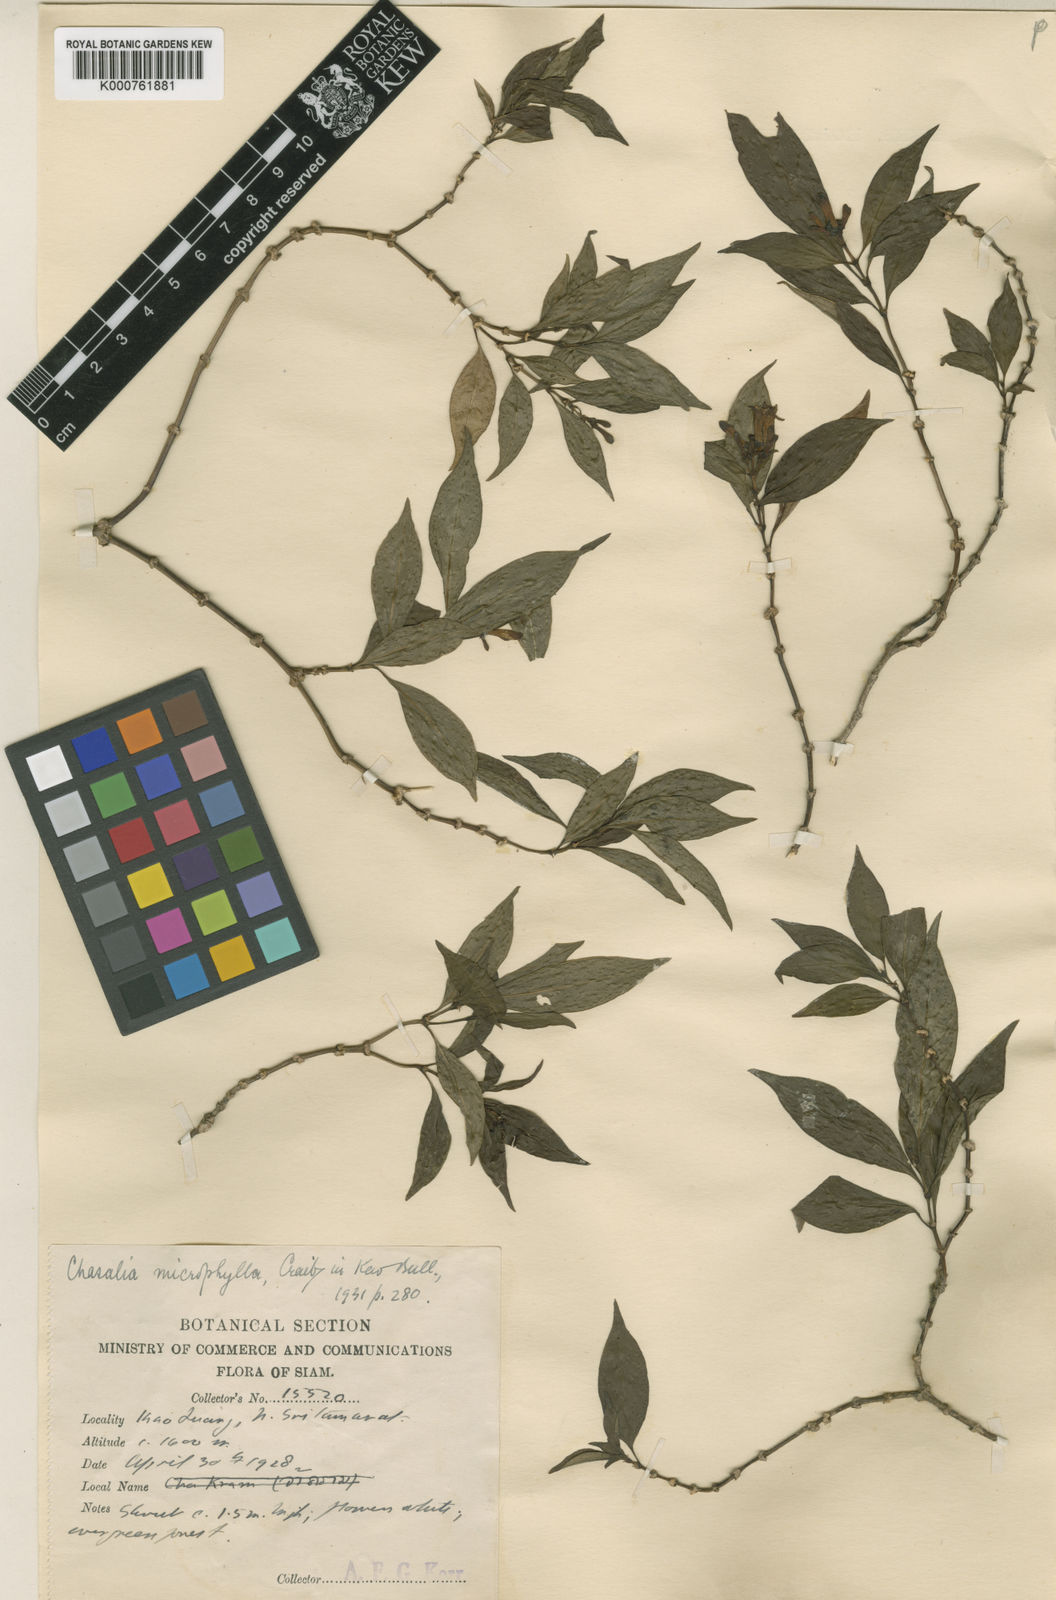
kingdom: Plantae
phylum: Tracheophyta
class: Magnoliopsida
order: Gentianales
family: Rubiaceae
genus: Chassalia
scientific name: Chassalia microphylla
